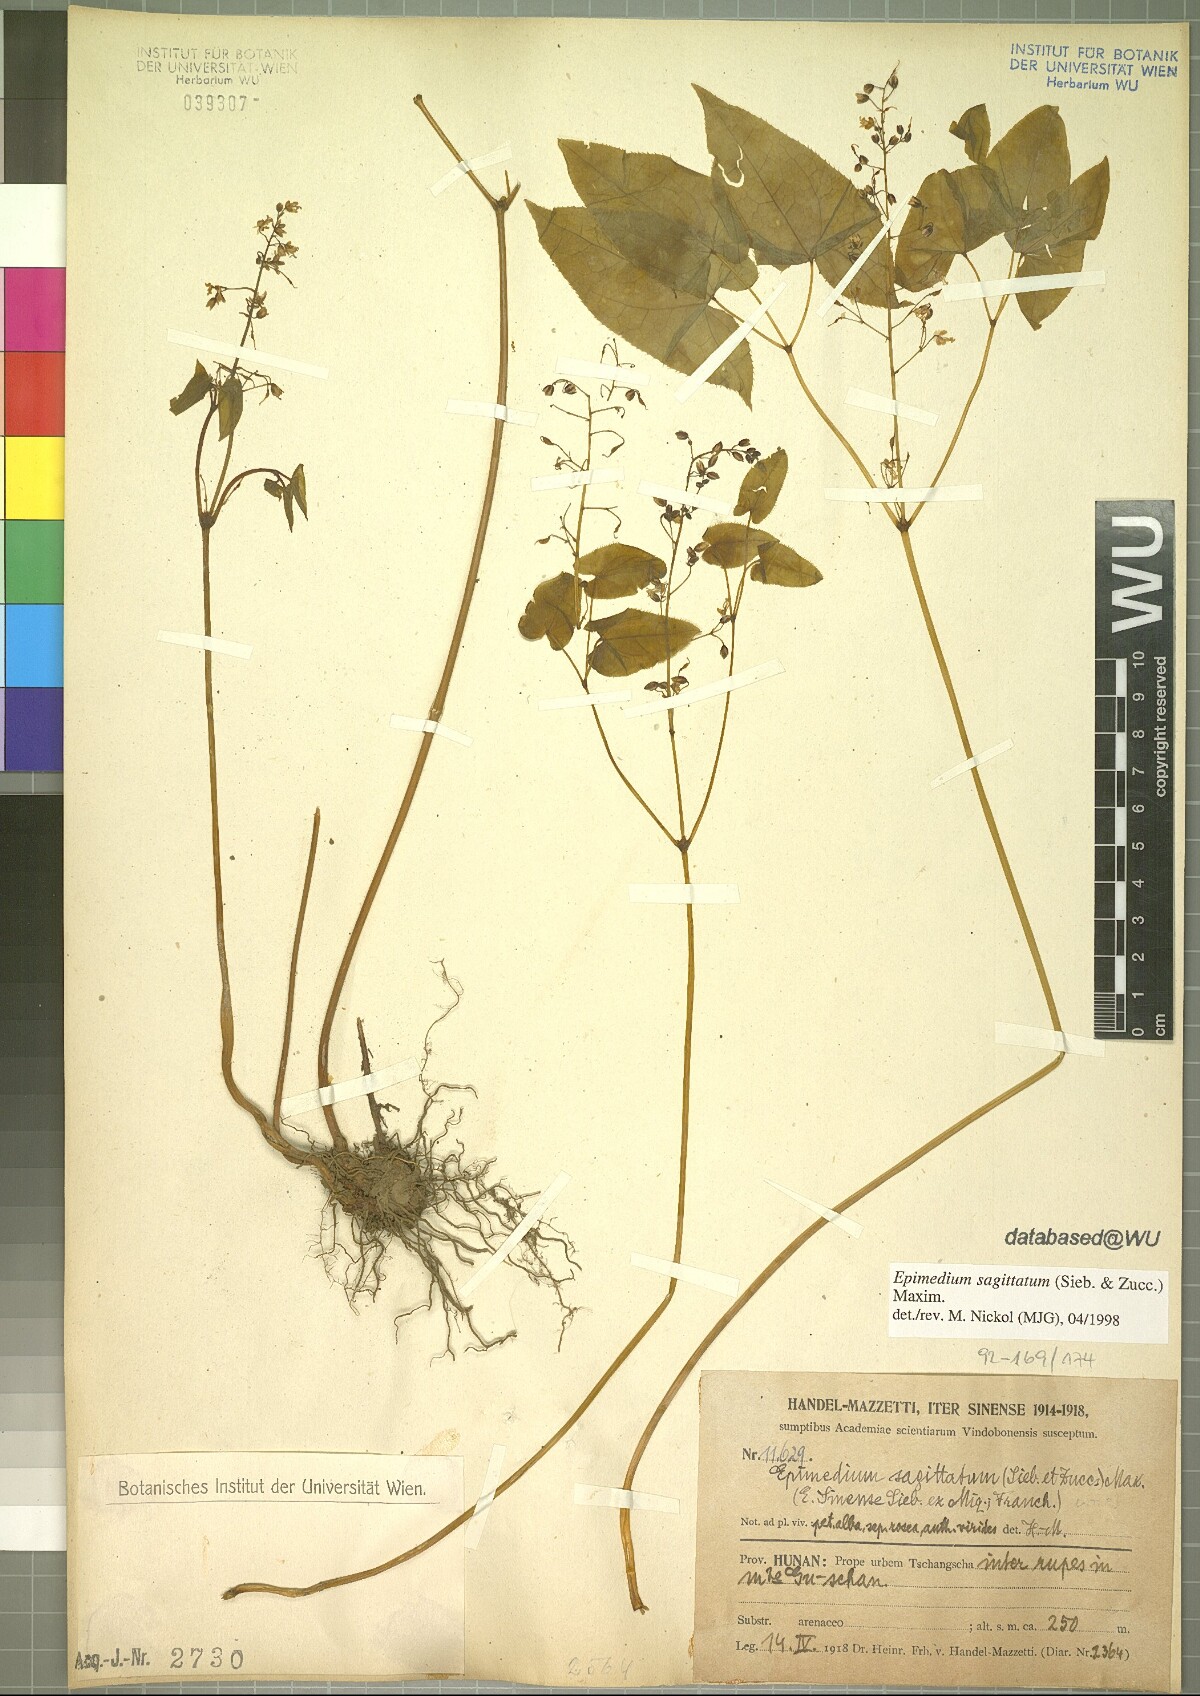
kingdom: Plantae
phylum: Tracheophyta
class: Magnoliopsida
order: Ranunculales
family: Berberidaceae
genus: Epimedium
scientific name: Epimedium sagittatum
